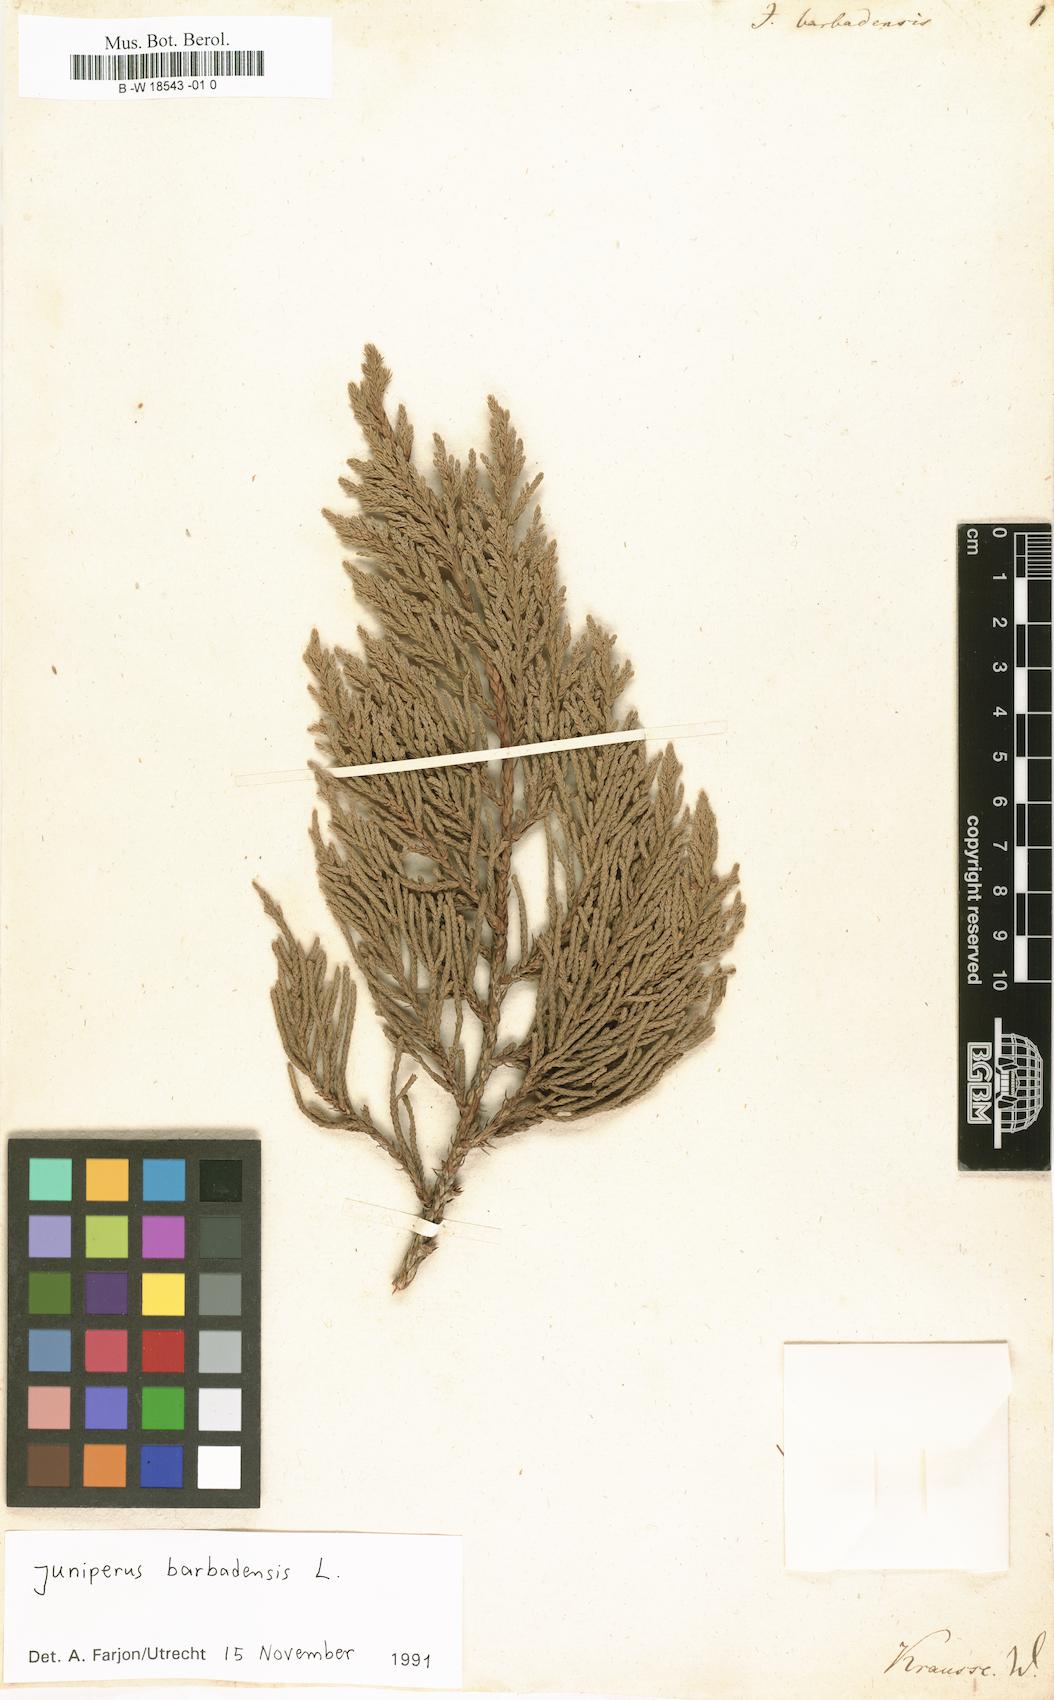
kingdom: Plantae
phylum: Tracheophyta
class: Pinopsida
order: Pinales
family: Cupressaceae
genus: Juniperus
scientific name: Juniperus barbadensis
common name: West indies juniper
